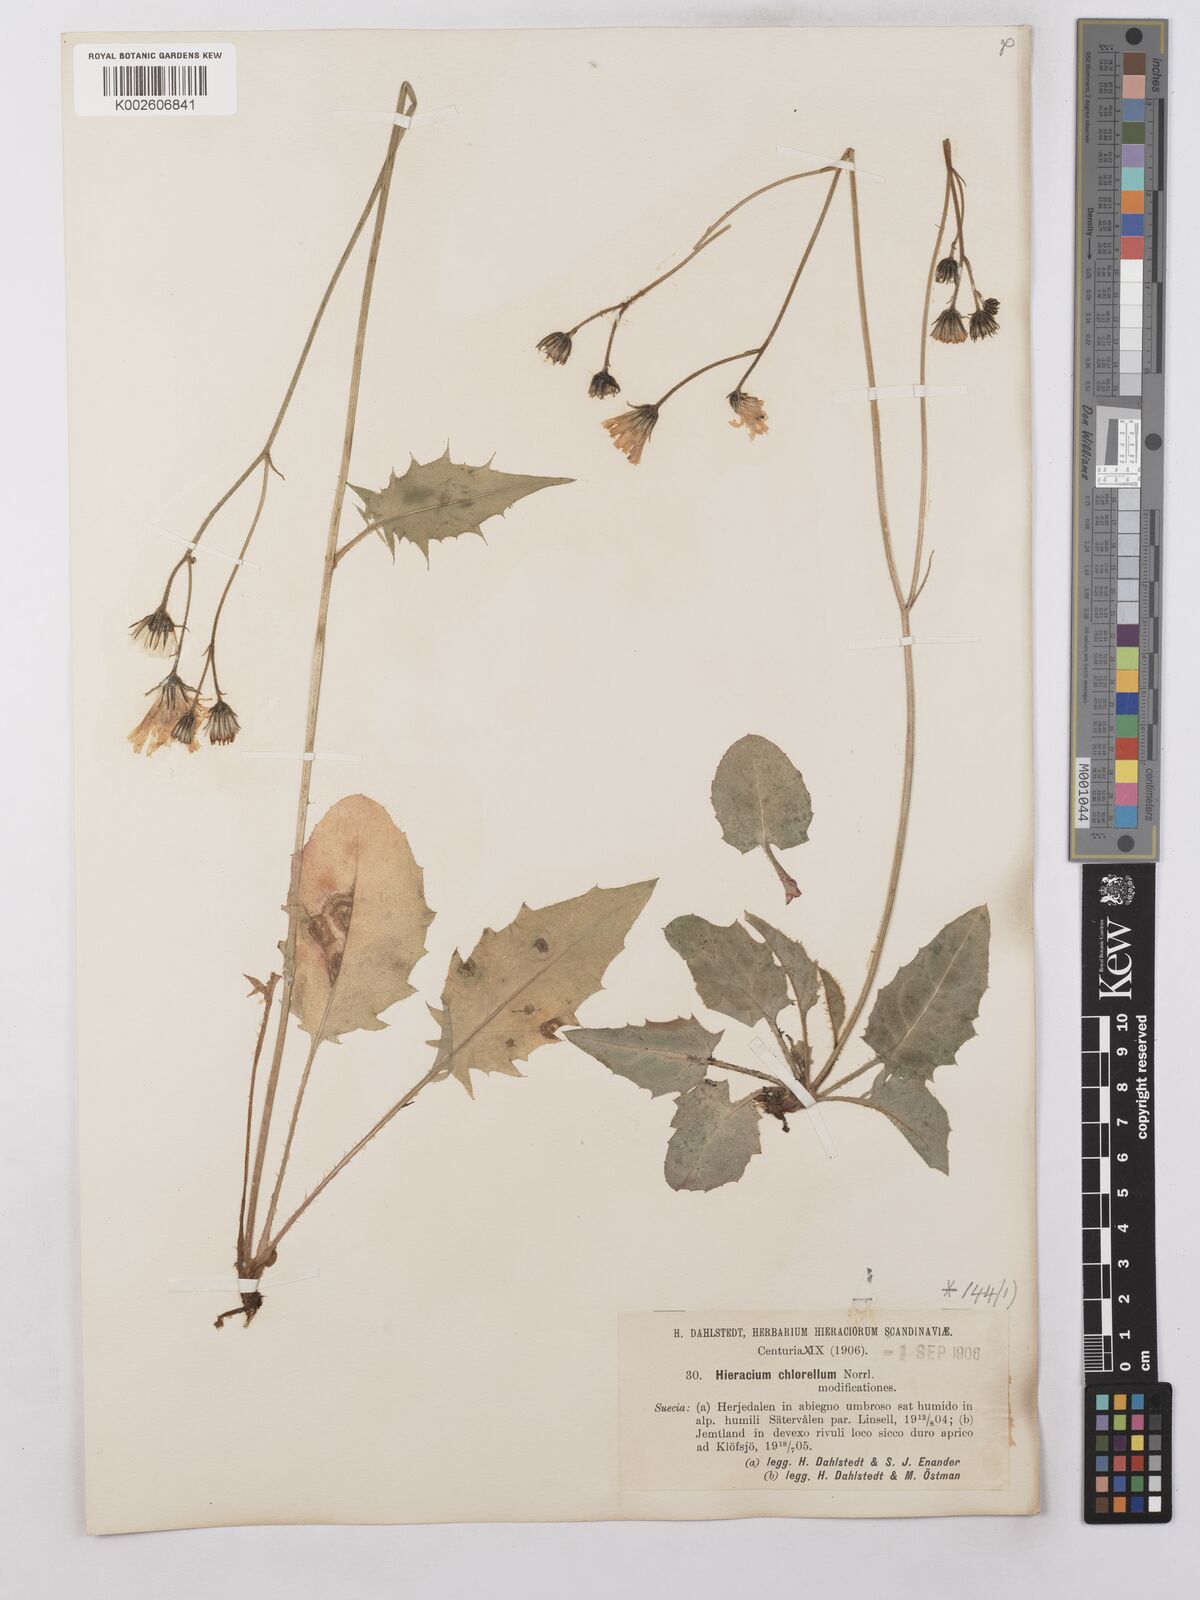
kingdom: Plantae
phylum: Tracheophyta
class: Magnoliopsida
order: Asterales
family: Asteraceae
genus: Hieracium
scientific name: Hieracium chlorellum
